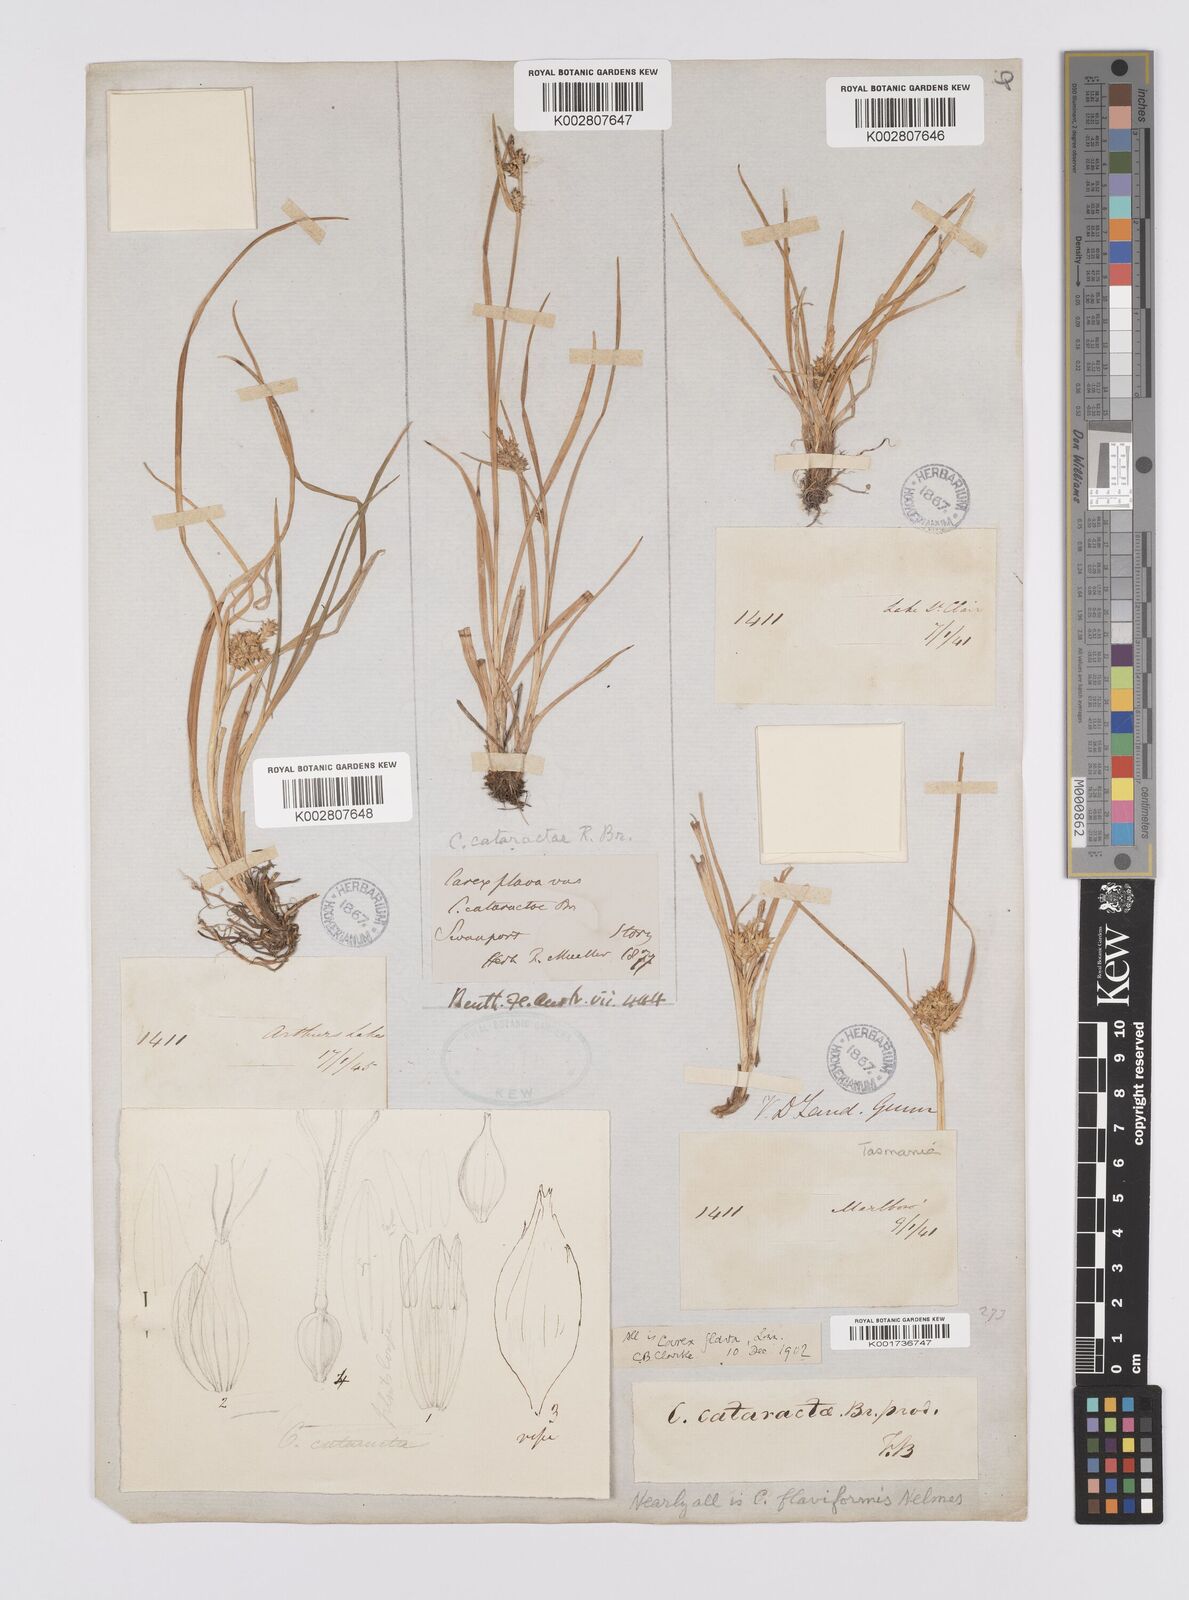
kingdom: Plantae
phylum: Tracheophyta
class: Liliopsida
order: Poales
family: Cyperaceae
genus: Carex
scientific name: Carex cataractae
